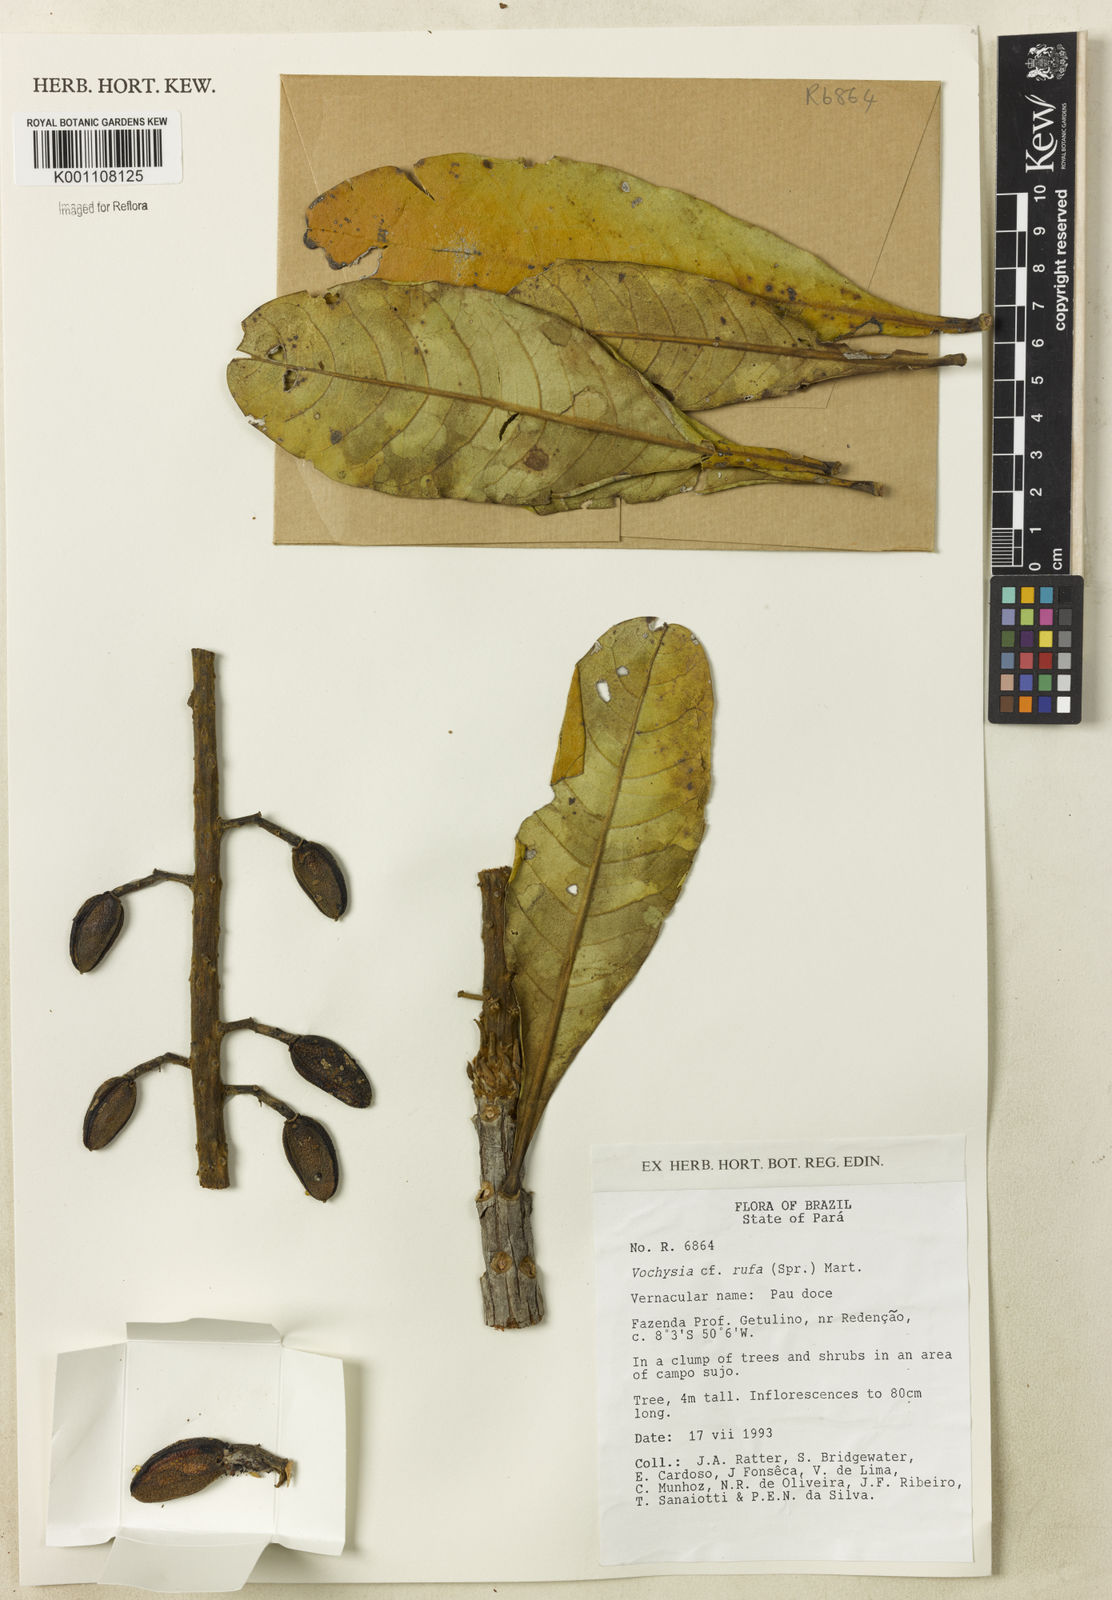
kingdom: Plantae
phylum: Tracheophyta
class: Magnoliopsida
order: Myrtales
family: Vochysiaceae
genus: Vochysia
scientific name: Vochysia rufa
